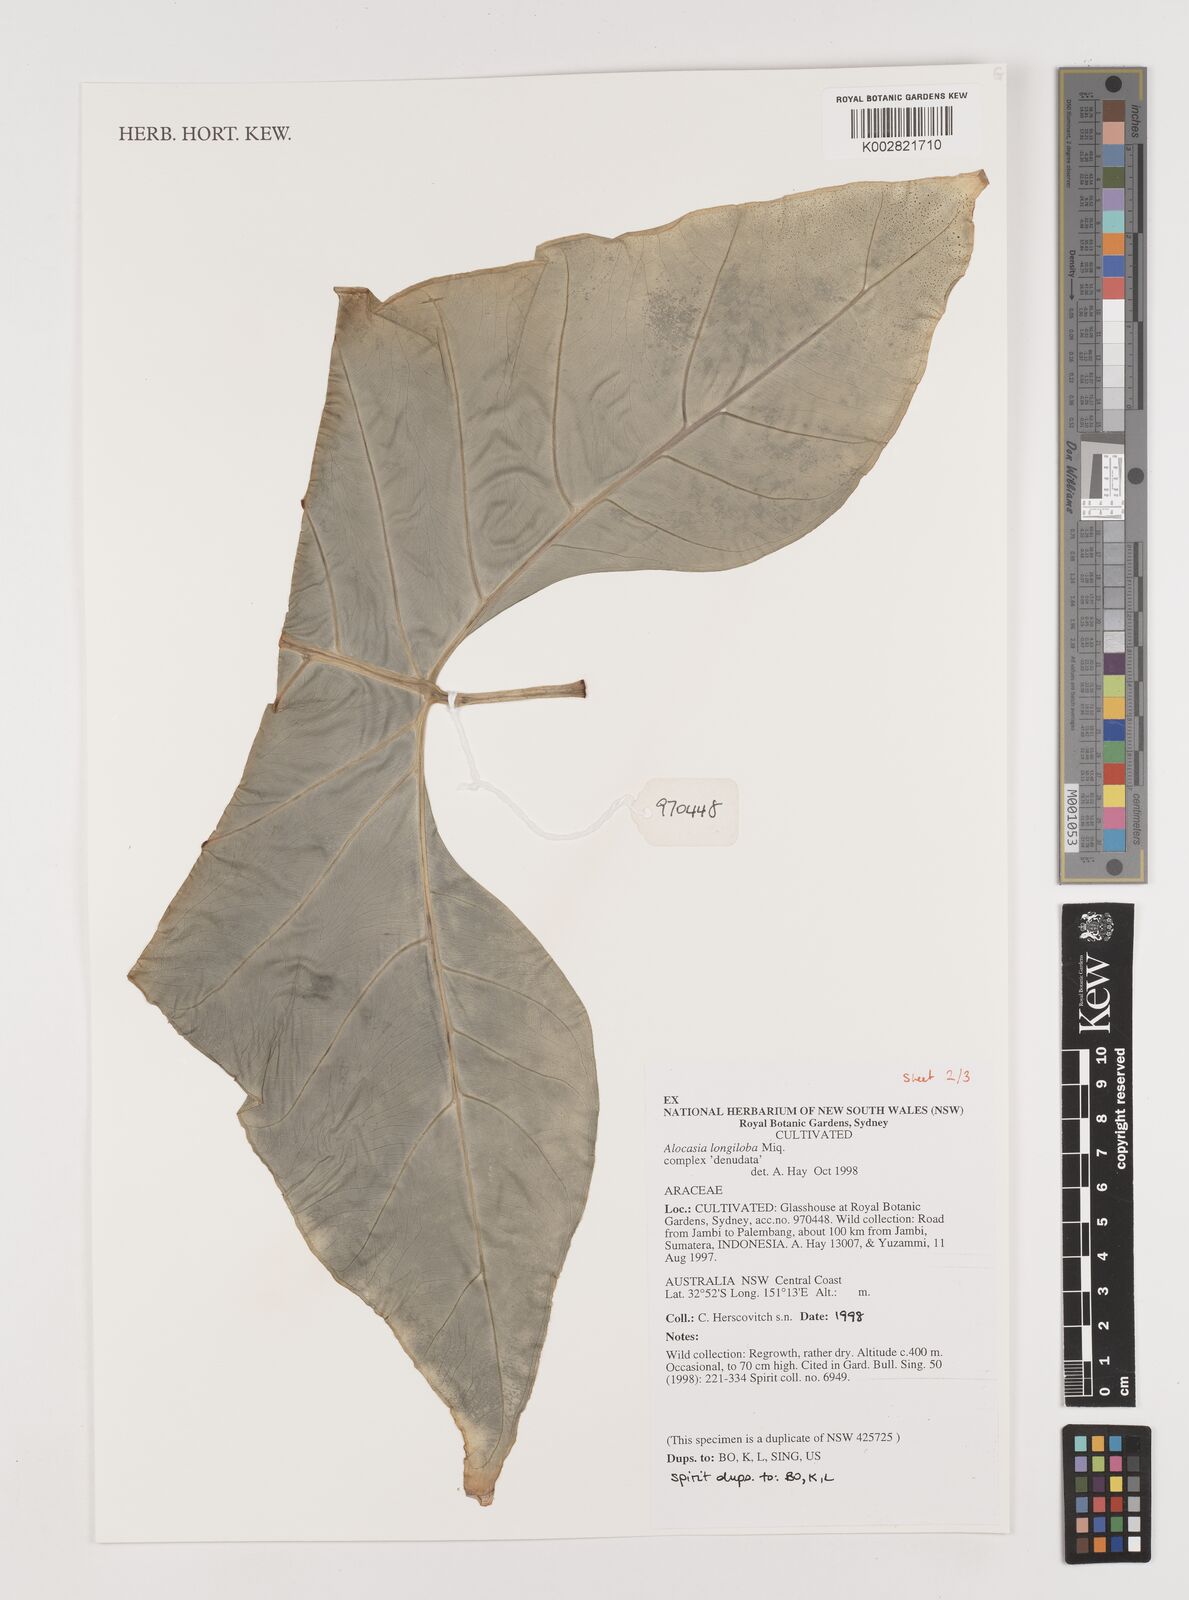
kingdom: Plantae
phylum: Tracheophyta
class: Liliopsida
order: Alismatales
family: Araceae
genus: Alocasia
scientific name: Alocasia longiloba
